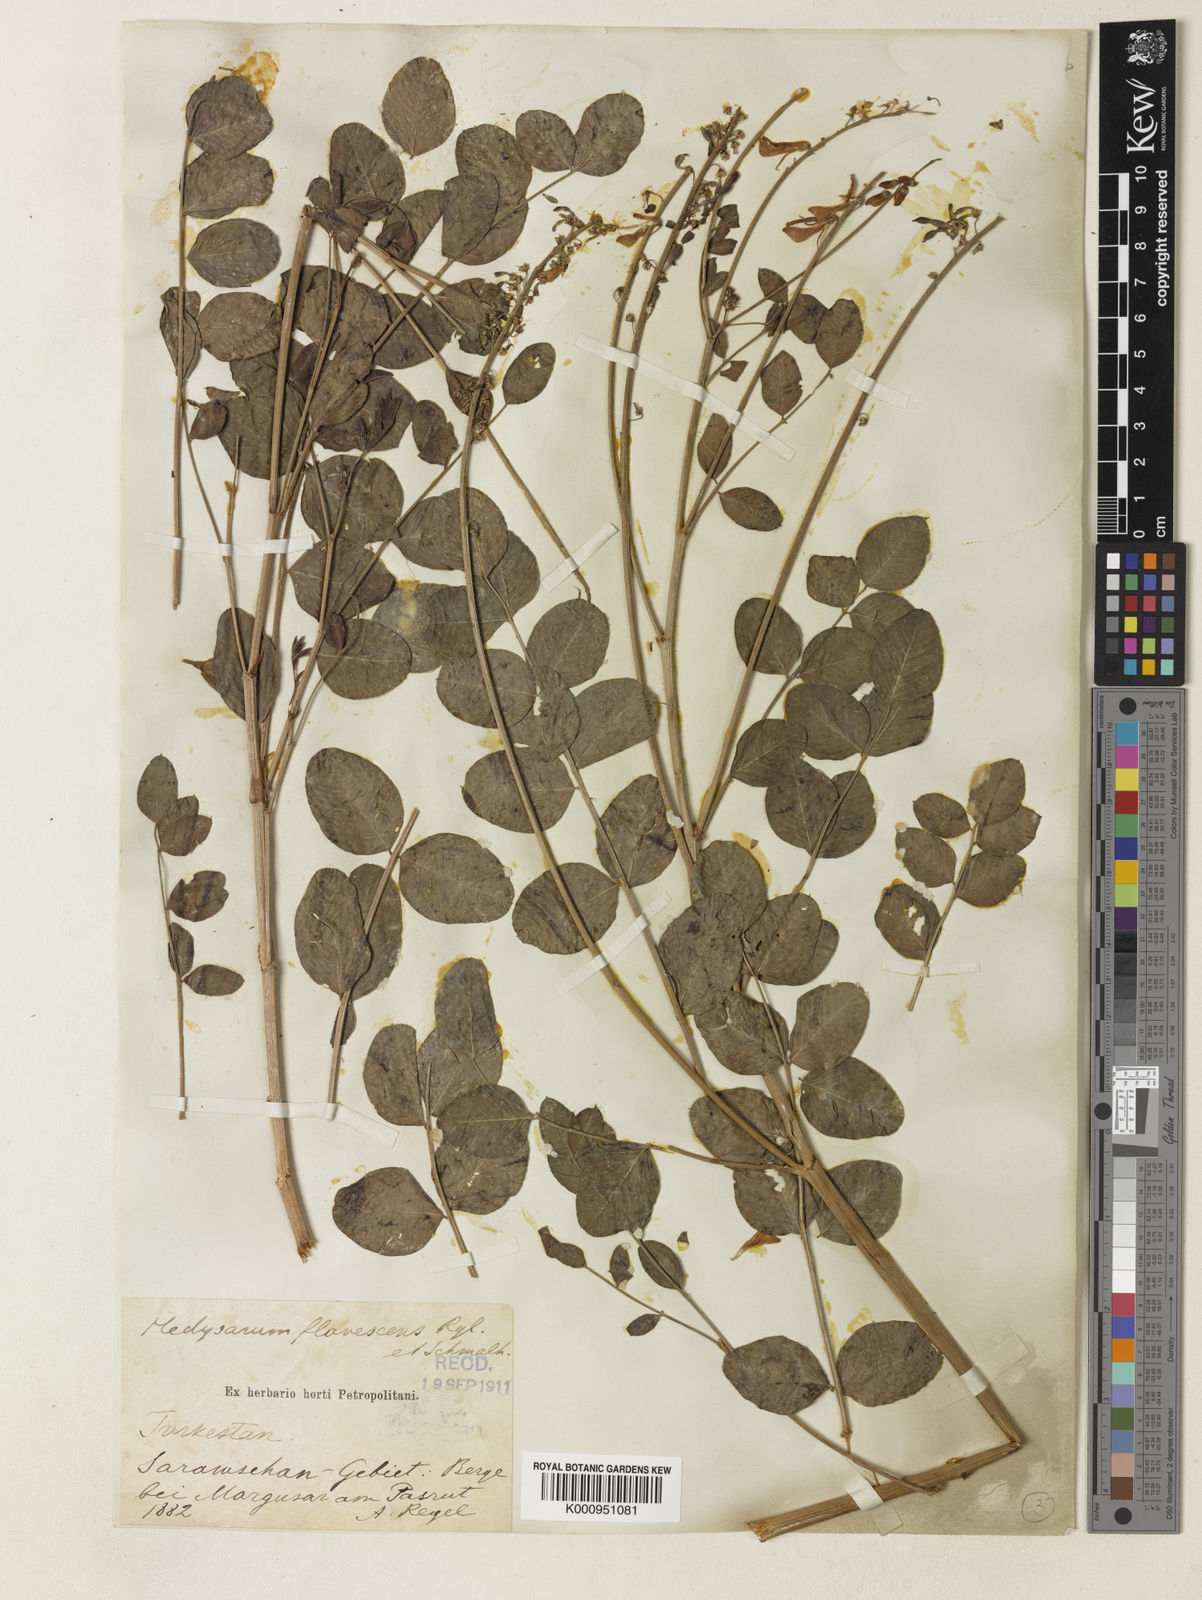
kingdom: Plantae
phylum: Tracheophyta
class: Magnoliopsida
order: Fabales
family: Fabaceae
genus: Hedysarum
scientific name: Hedysarum flavescens
